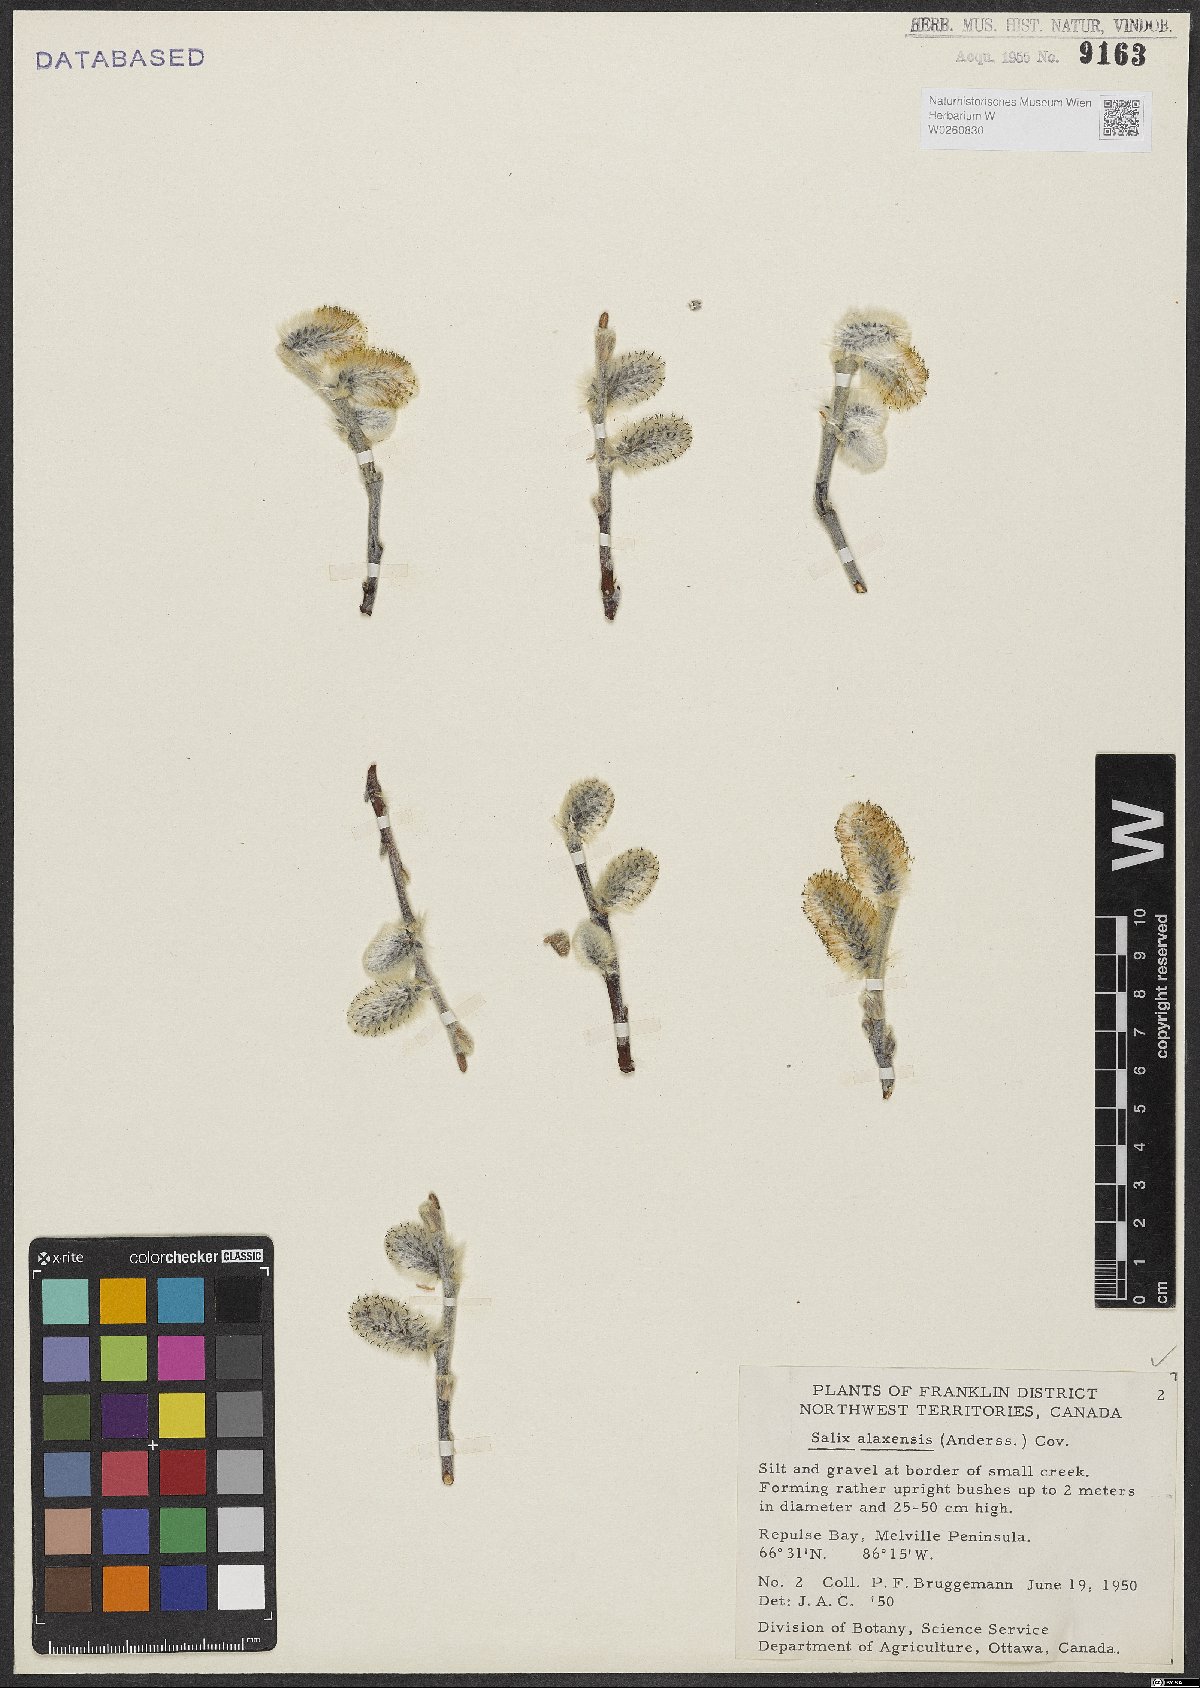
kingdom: Plantae
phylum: Tracheophyta
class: Magnoliopsida
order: Malpighiales
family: Salicaceae
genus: Salix
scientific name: Salix alaxensis
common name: Feltleaf willow
